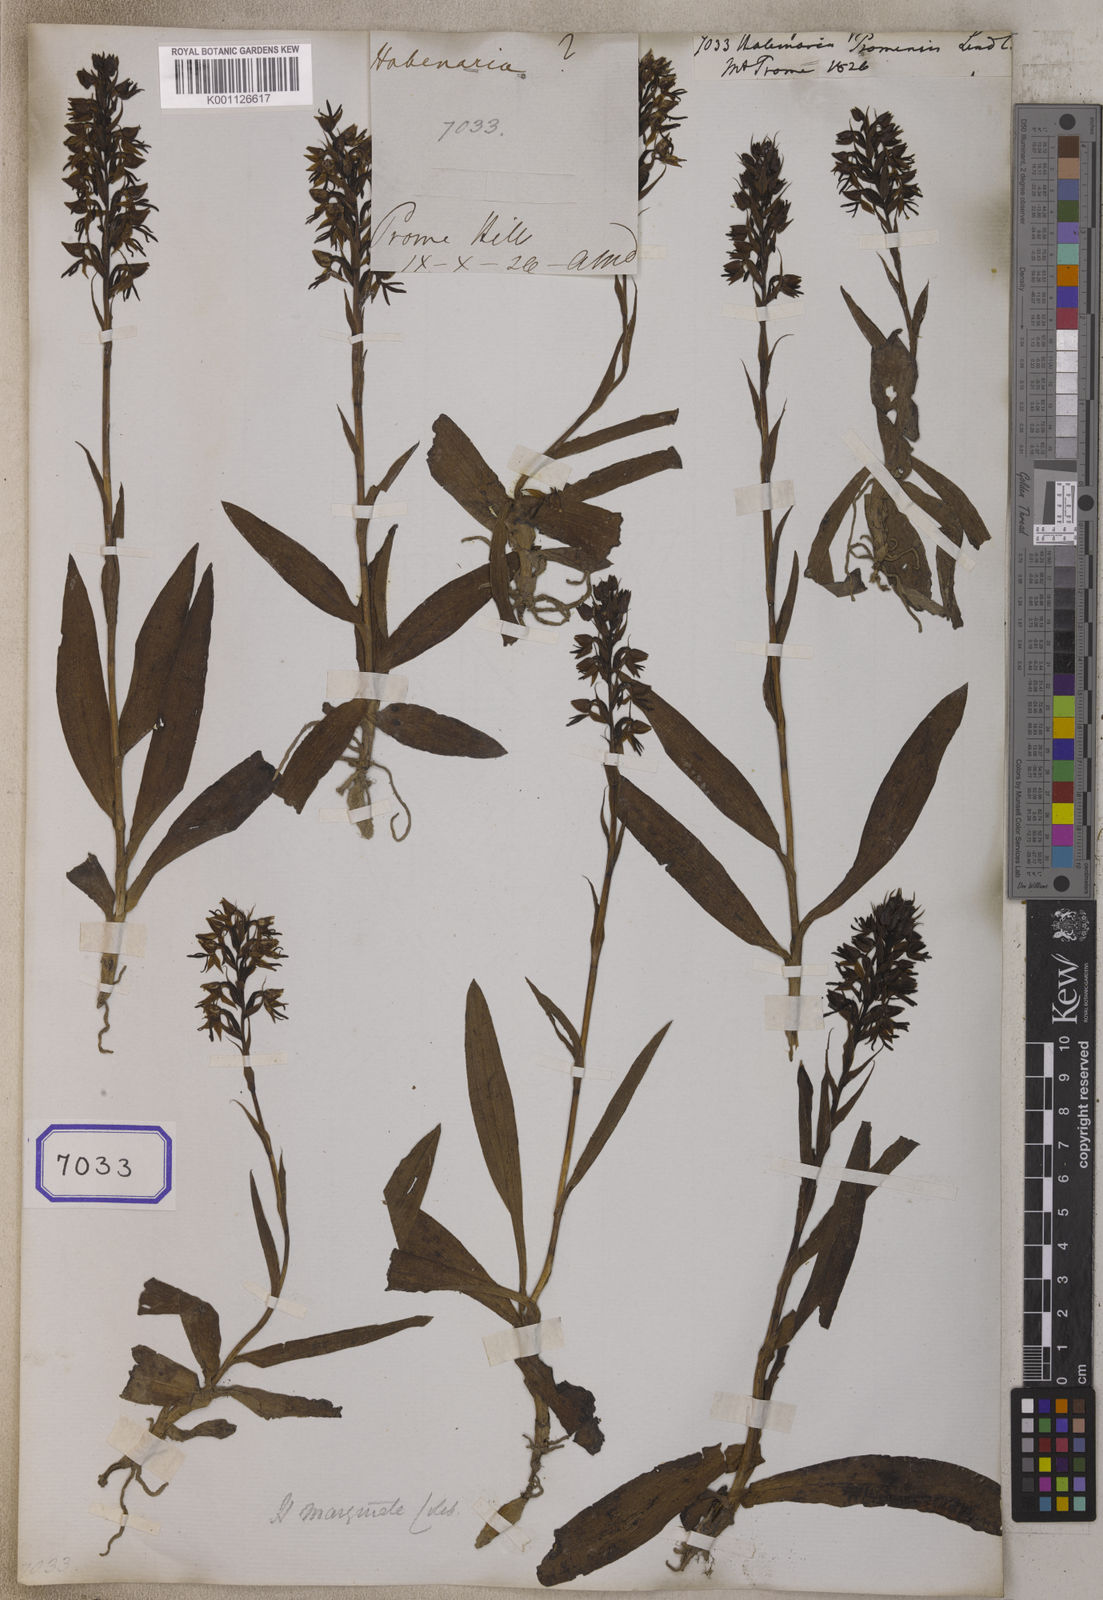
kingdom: Plantae
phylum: Tracheophyta
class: Liliopsida
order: Asparagales
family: Orchidaceae
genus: Habenaria
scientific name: Habenaria marginata
